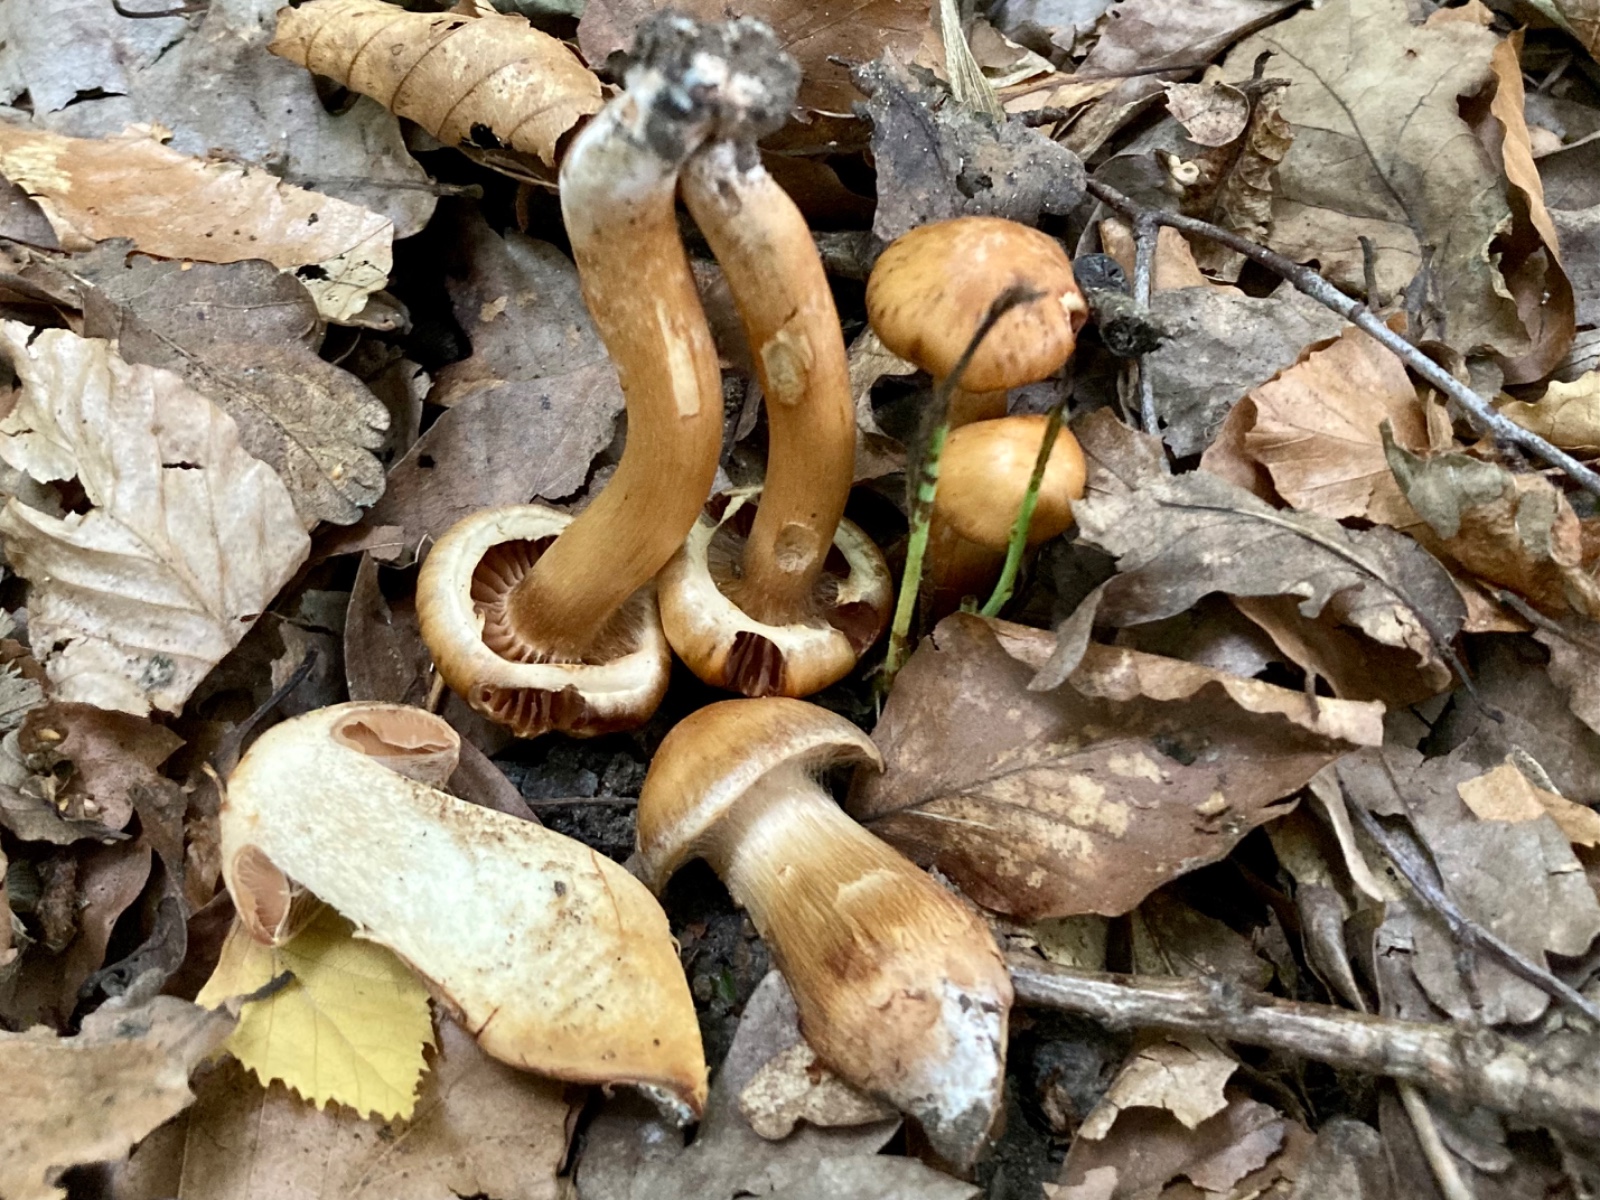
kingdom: Fungi
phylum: Basidiomycota
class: Agaricomycetes
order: Agaricales
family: Cortinariaceae
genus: Cortinarius
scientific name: Cortinarius roseonudipes
